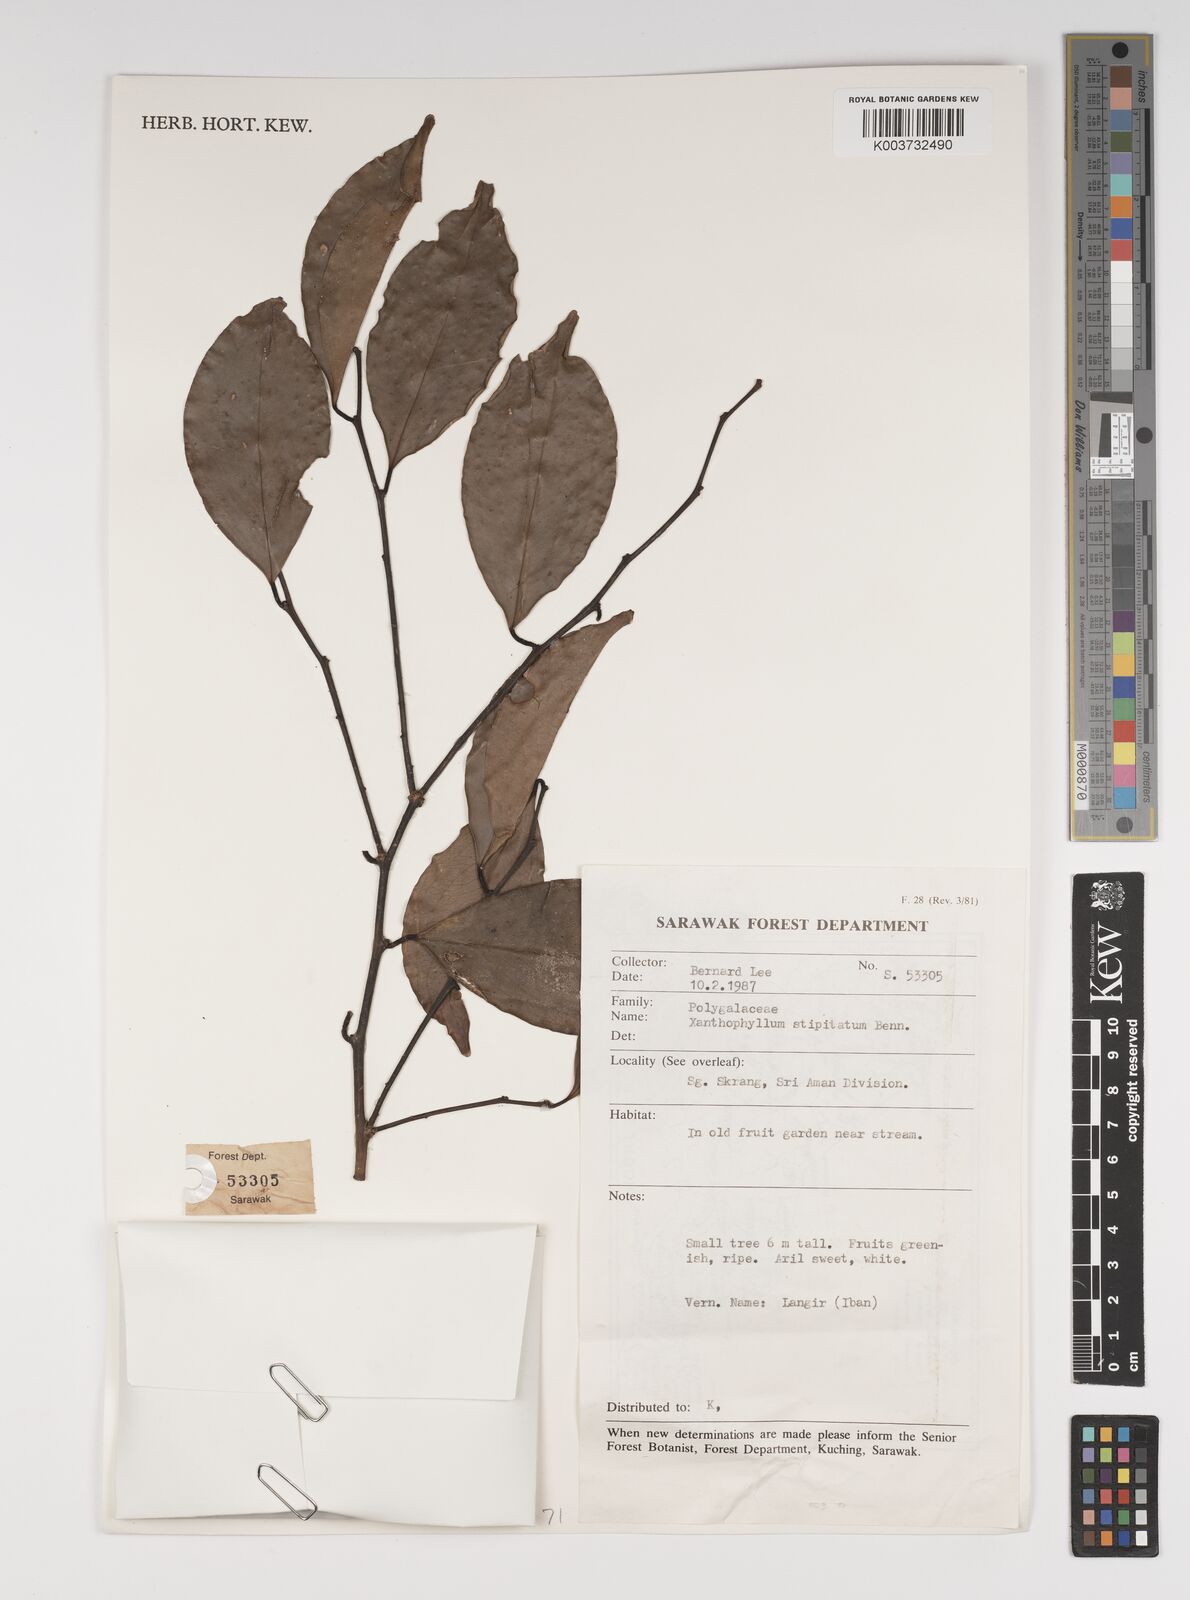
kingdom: Plantae
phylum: Tracheophyta
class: Magnoliopsida
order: Fabales
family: Polygalaceae
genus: Xanthophyllum
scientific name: Xanthophyllum stipitatum
